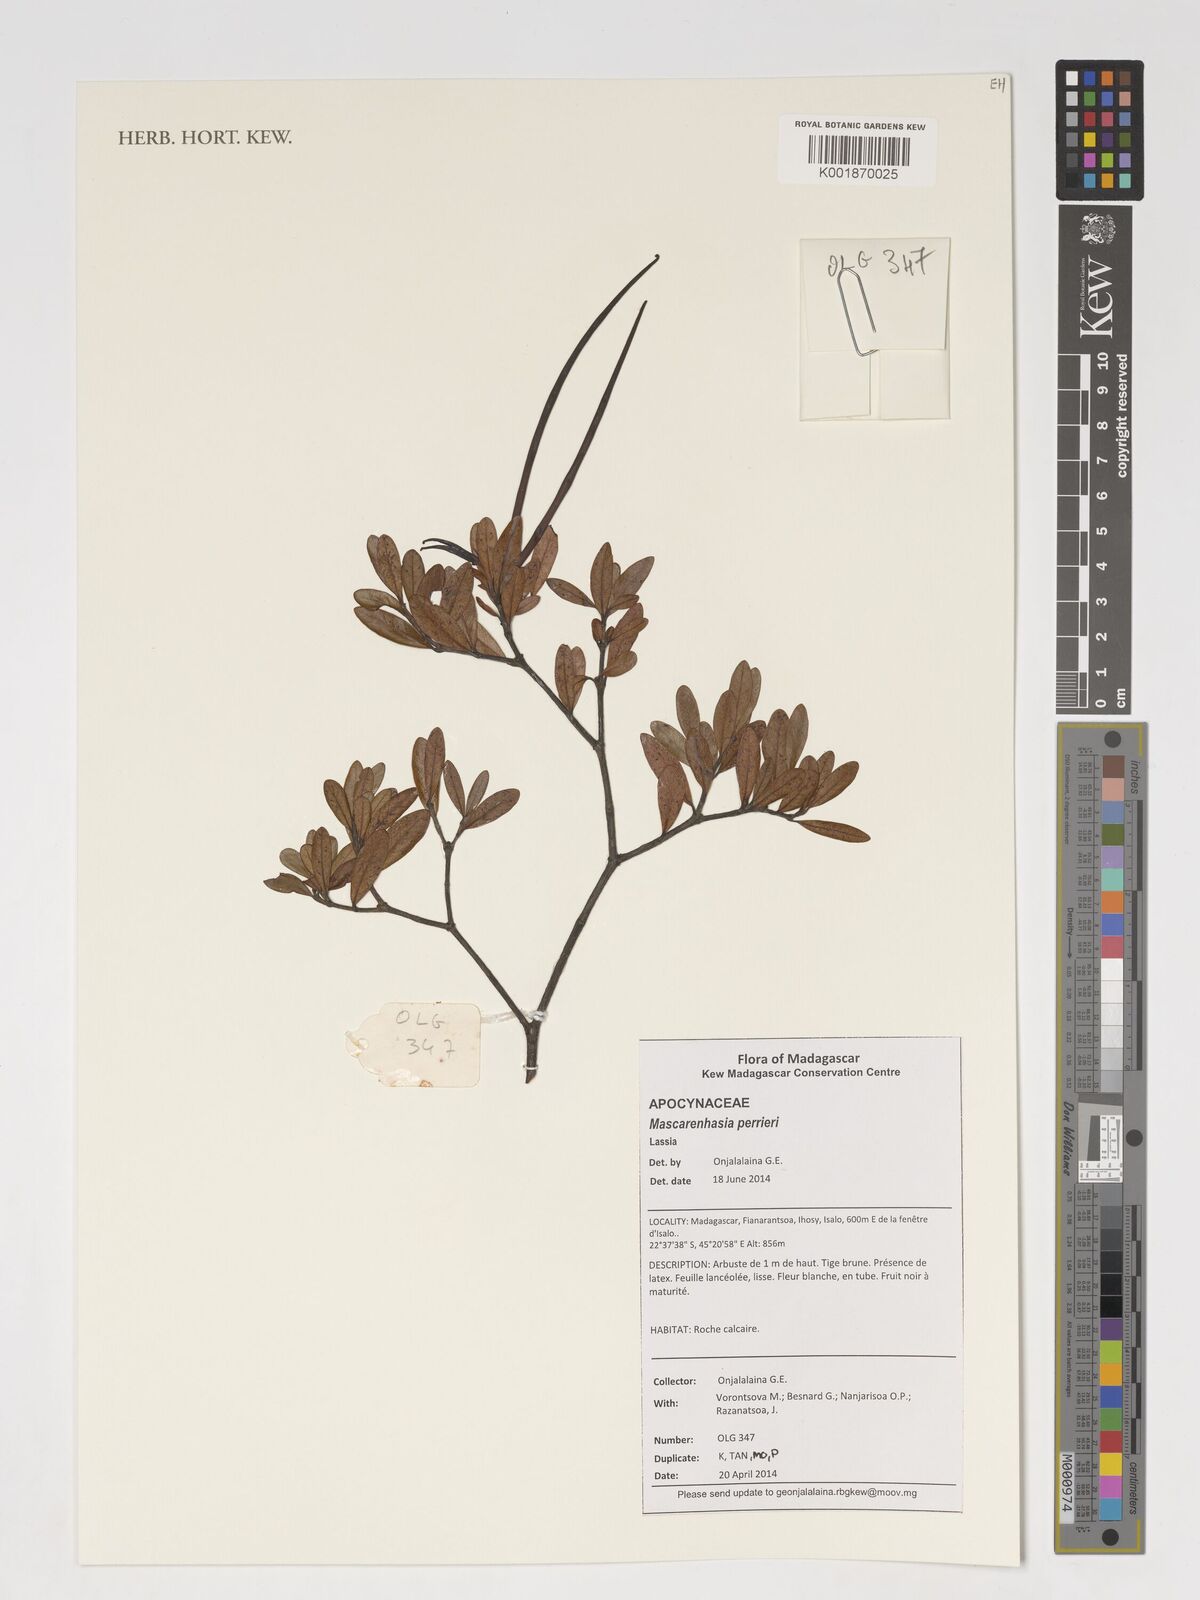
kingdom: Plantae
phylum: Tracheophyta
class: Magnoliopsida
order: Gentianales
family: Apocynaceae
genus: Mascarenhasia
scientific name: Mascarenhasia
